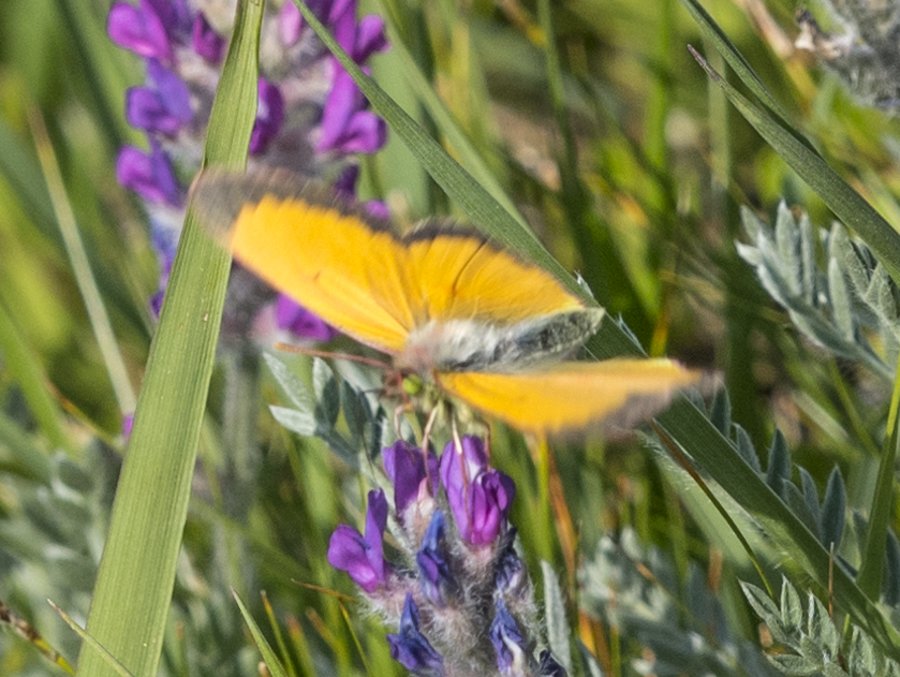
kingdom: Animalia
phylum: Arthropoda
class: Insecta
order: Lepidoptera
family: Pieridae
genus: Colias
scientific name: Colias meadii
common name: Mead's Sulphur
